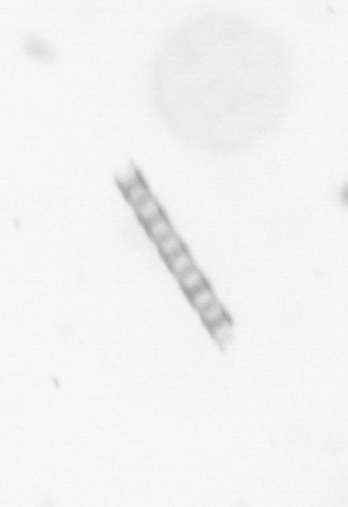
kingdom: Chromista
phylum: Ochrophyta
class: Bacillariophyceae
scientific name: Bacillariophyceae
